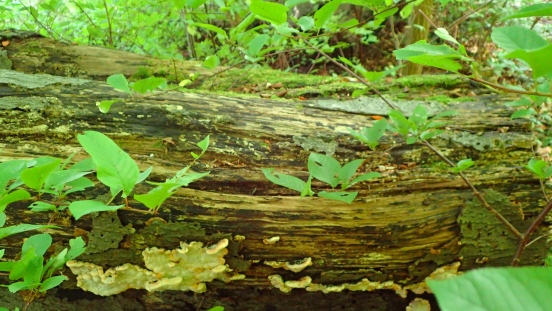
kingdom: Fungi
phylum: Basidiomycota
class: Agaricomycetes
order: Polyporales
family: Ischnodermataceae
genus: Ischnoderma
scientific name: Ischnoderma resinosum
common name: løv-tjæreporesvamp
